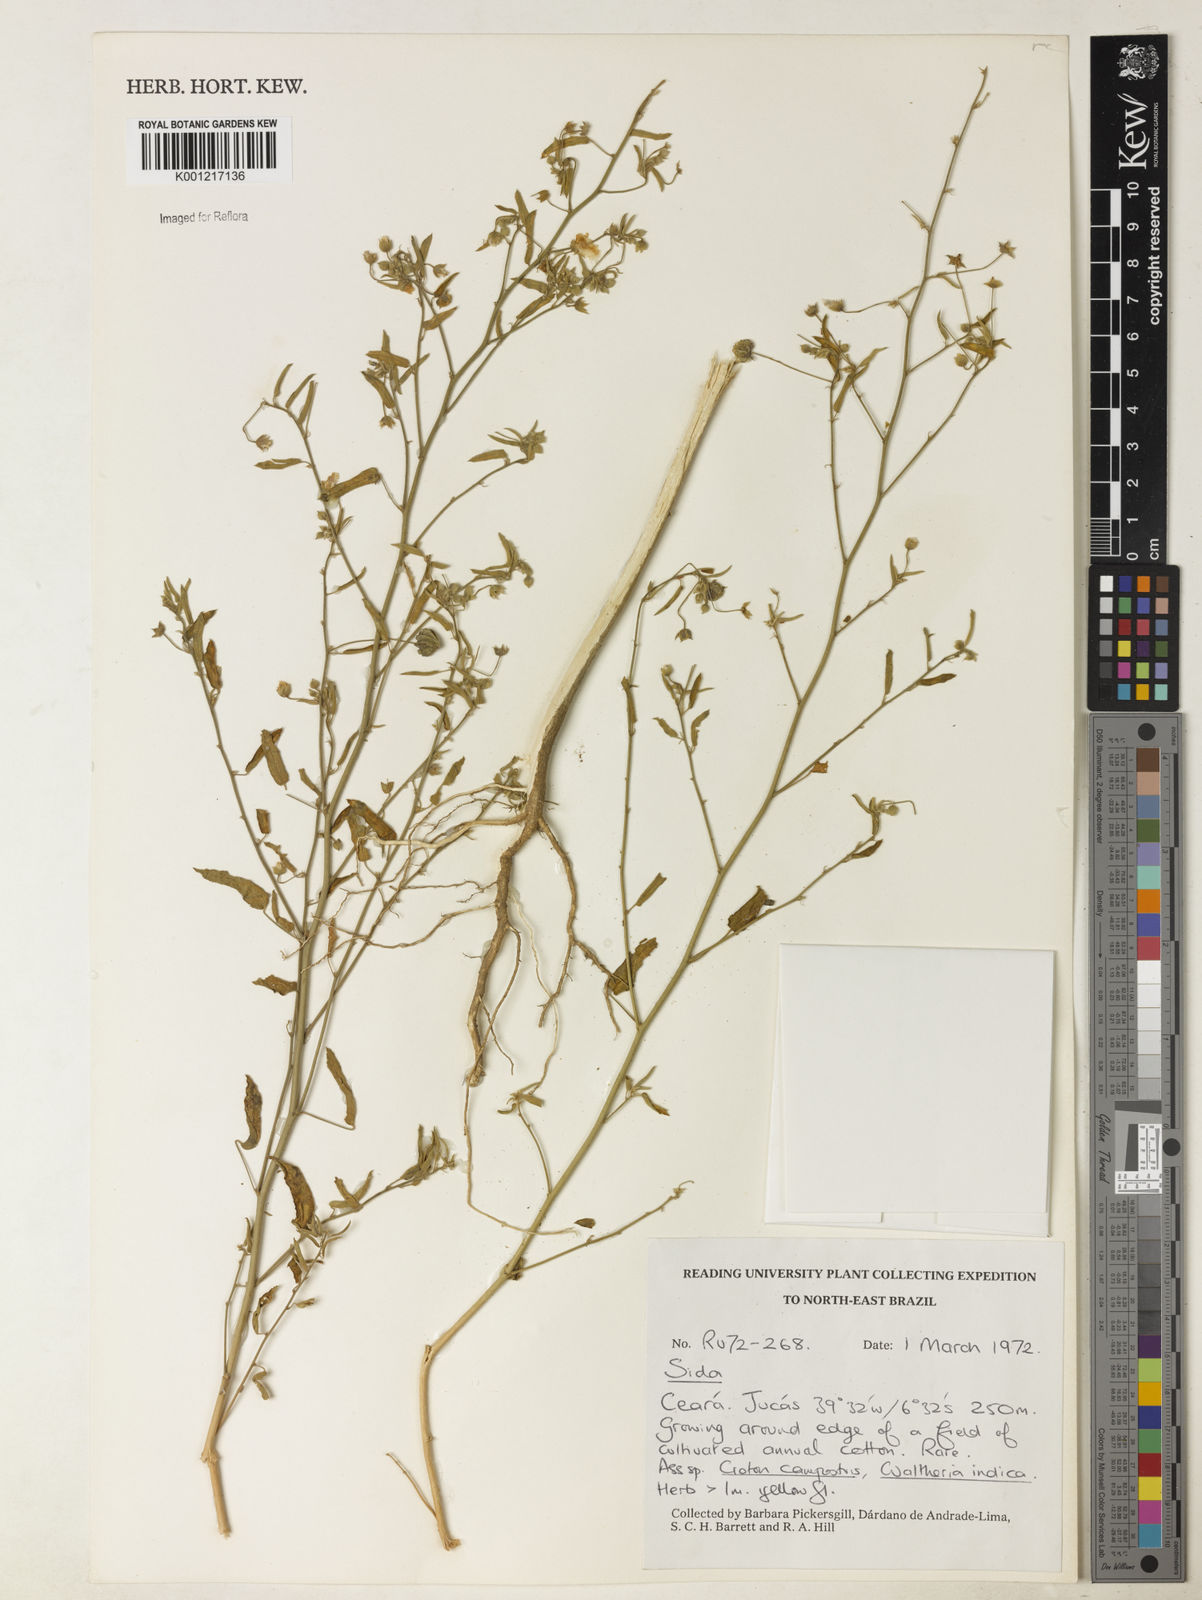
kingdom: Plantae
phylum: Tracheophyta
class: Magnoliopsida
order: Malvales
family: Malvaceae
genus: Sida
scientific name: Sida
